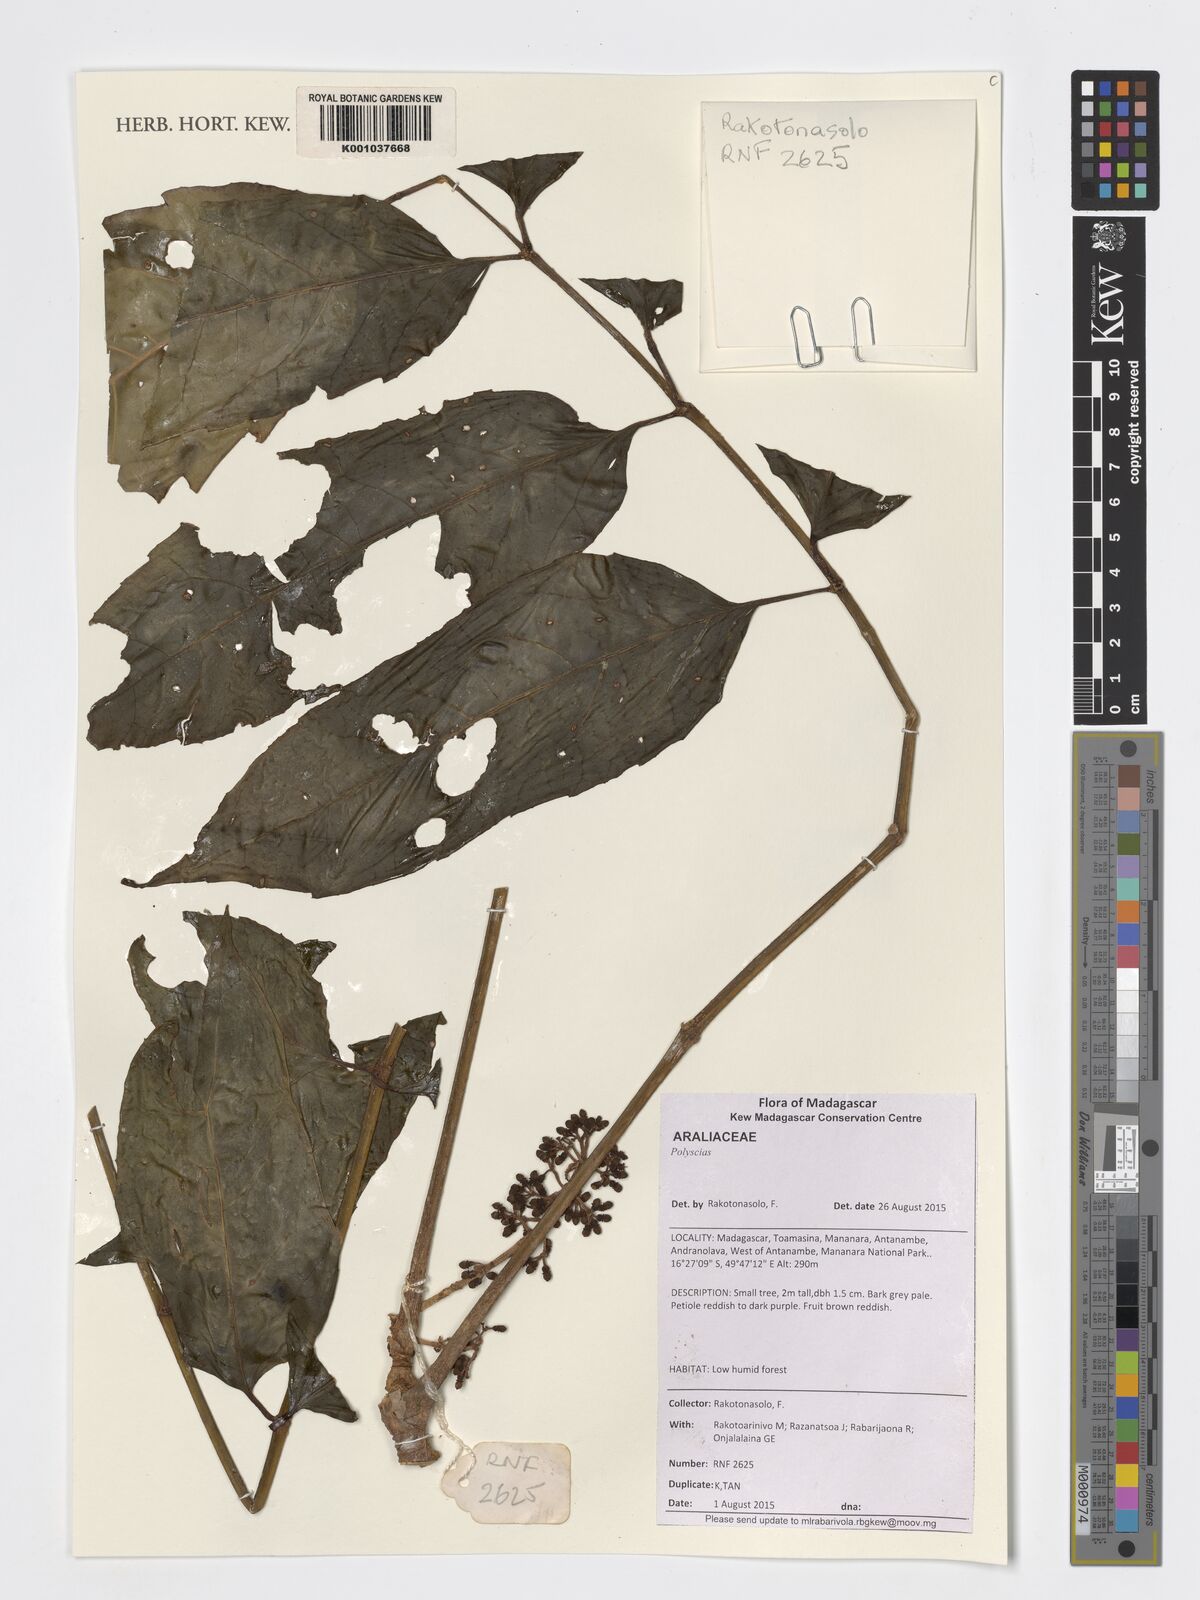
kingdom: Plantae
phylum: Tracheophyta
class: Magnoliopsida
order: Apiales
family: Araliaceae
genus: Polyscias
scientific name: Polyscias
